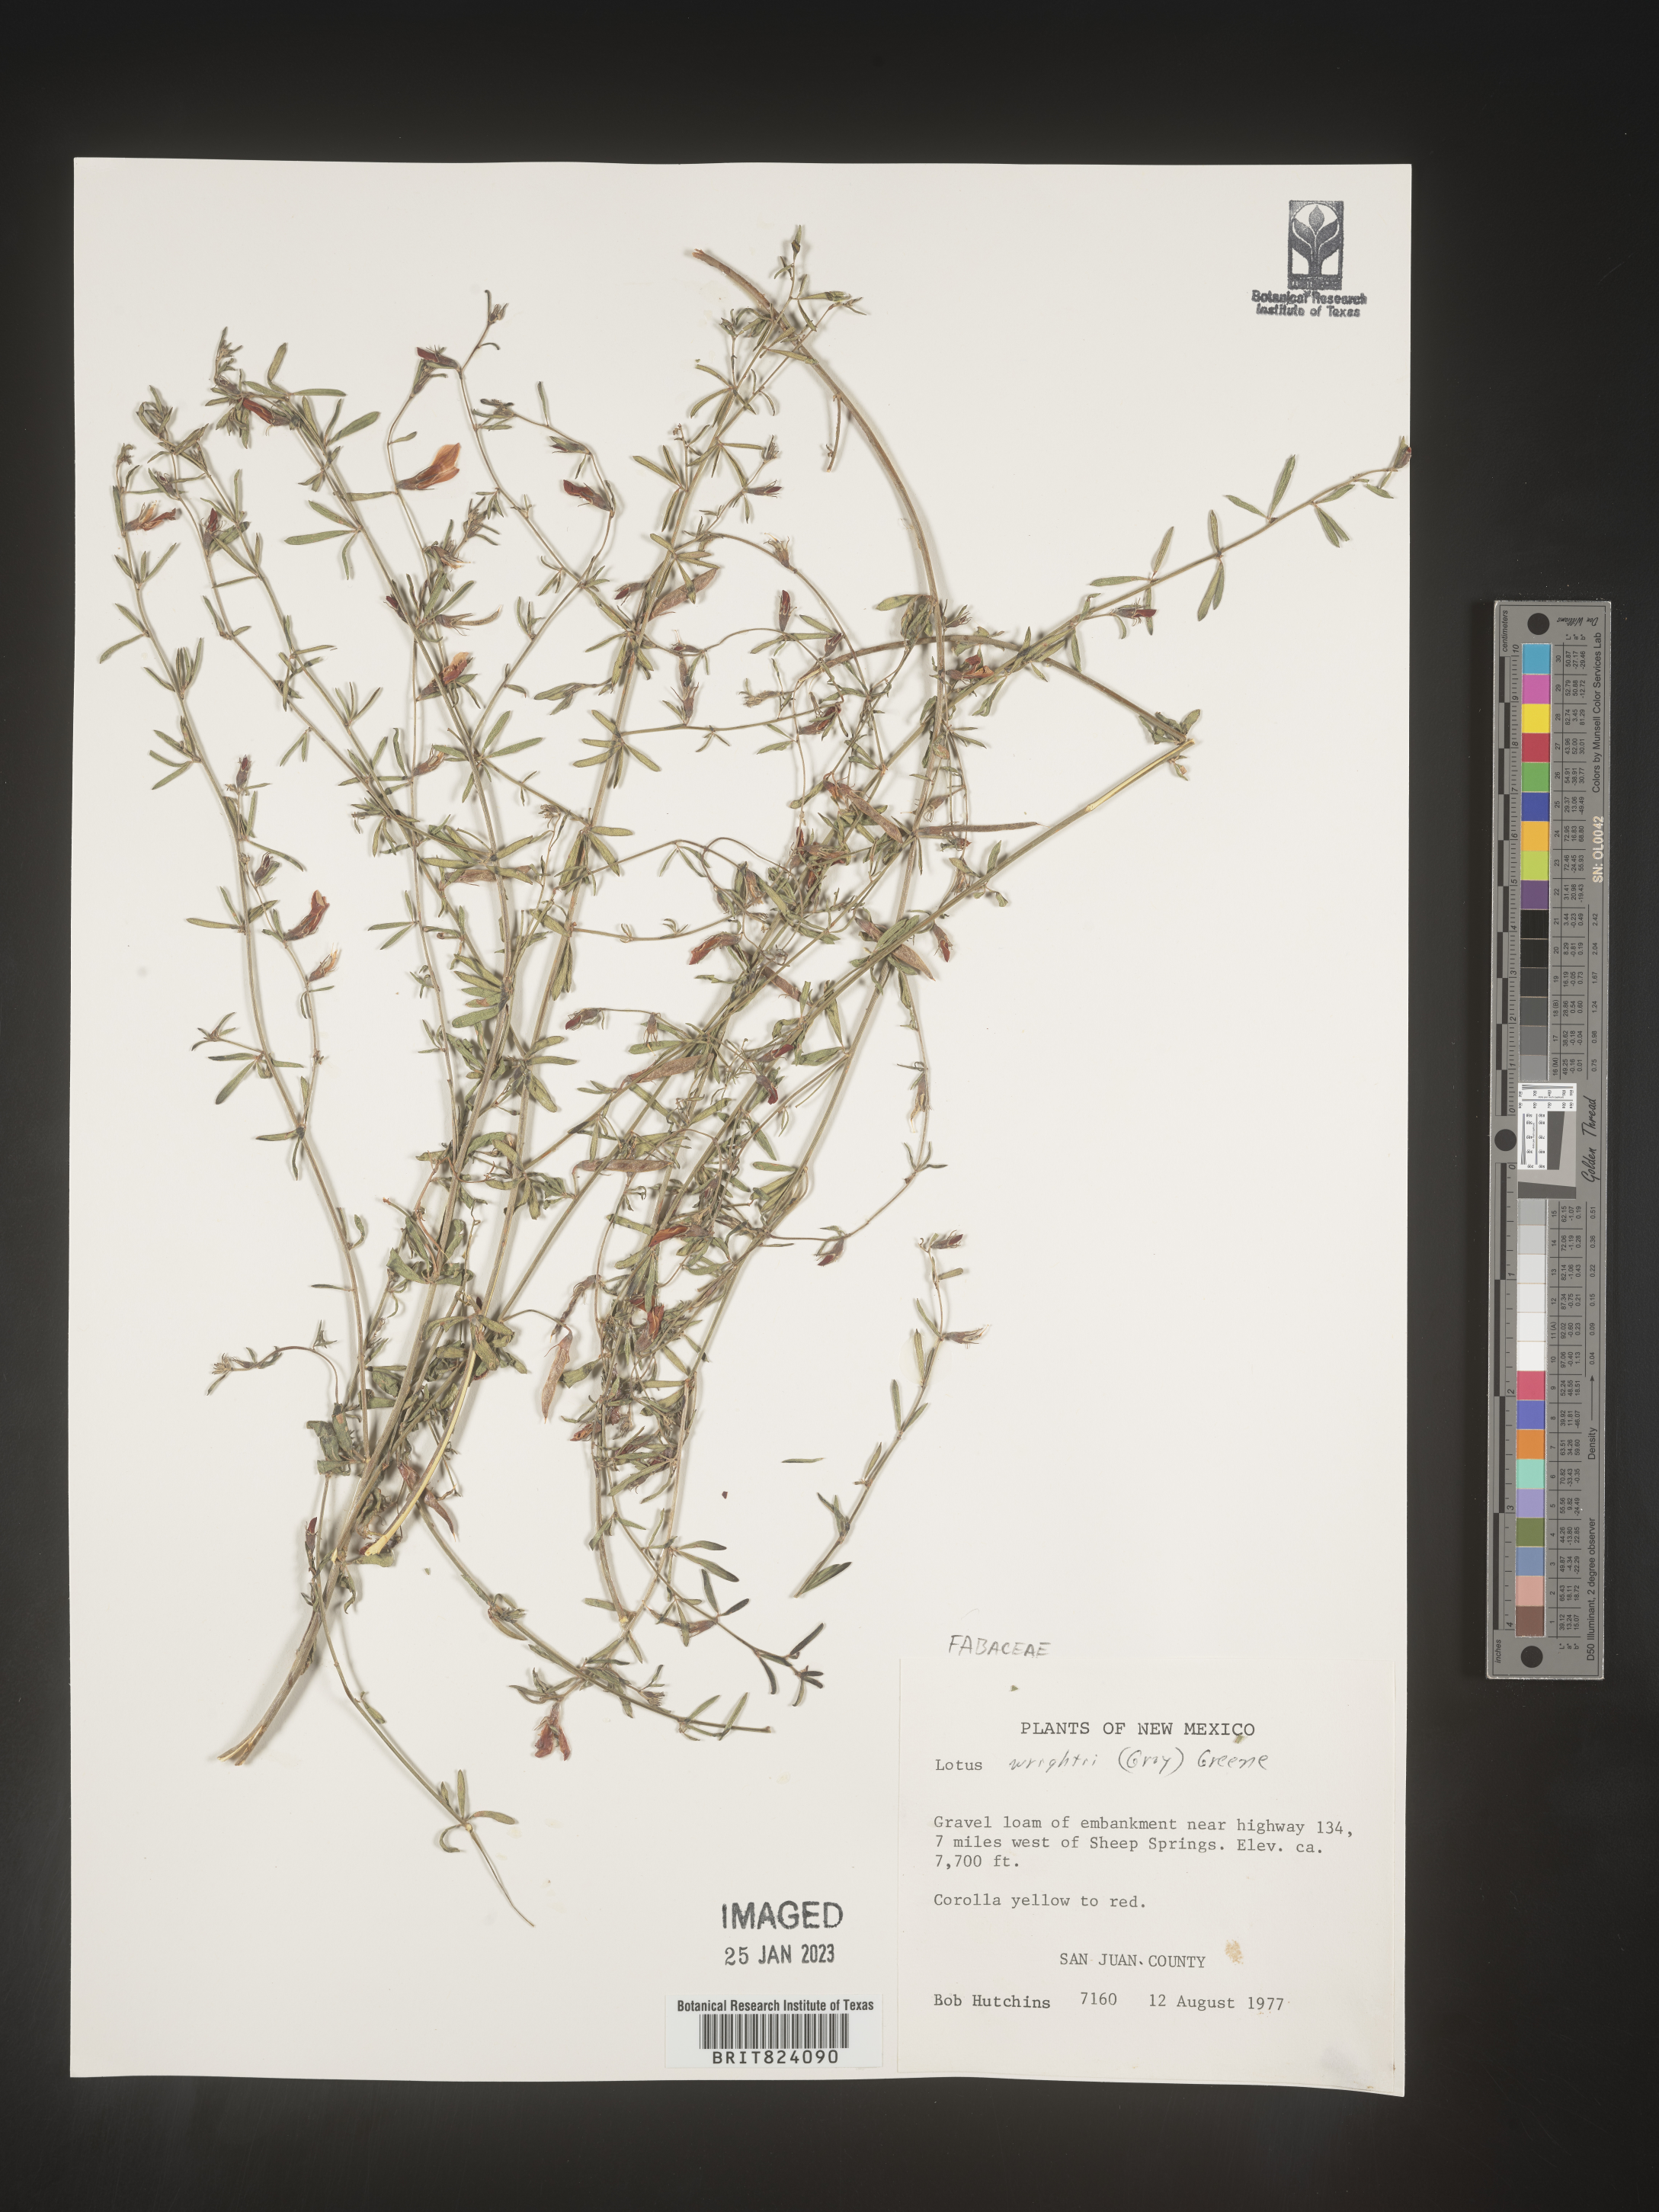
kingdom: Plantae
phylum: Tracheophyta
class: Magnoliopsida
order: Fabales
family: Fabaceae
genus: Acmispon
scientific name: Acmispon wrightii
